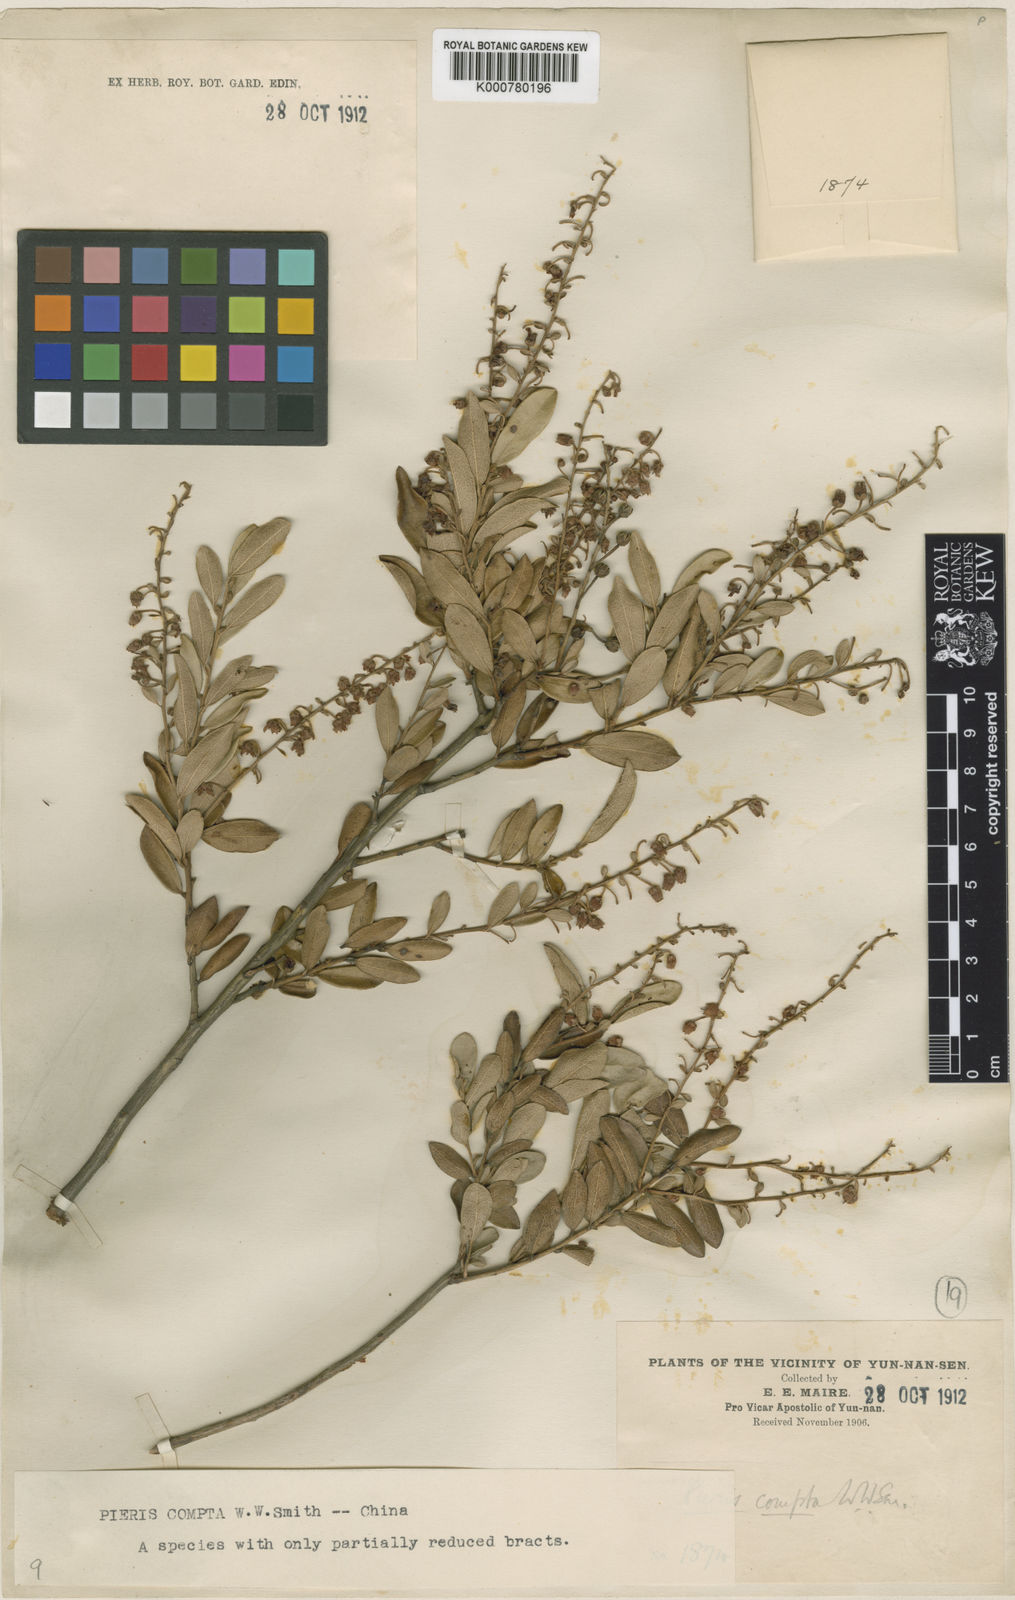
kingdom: Plantae
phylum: Tracheophyta
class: Magnoliopsida
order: Ericales
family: Ericaceae
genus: Lyonia
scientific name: Lyonia compta
